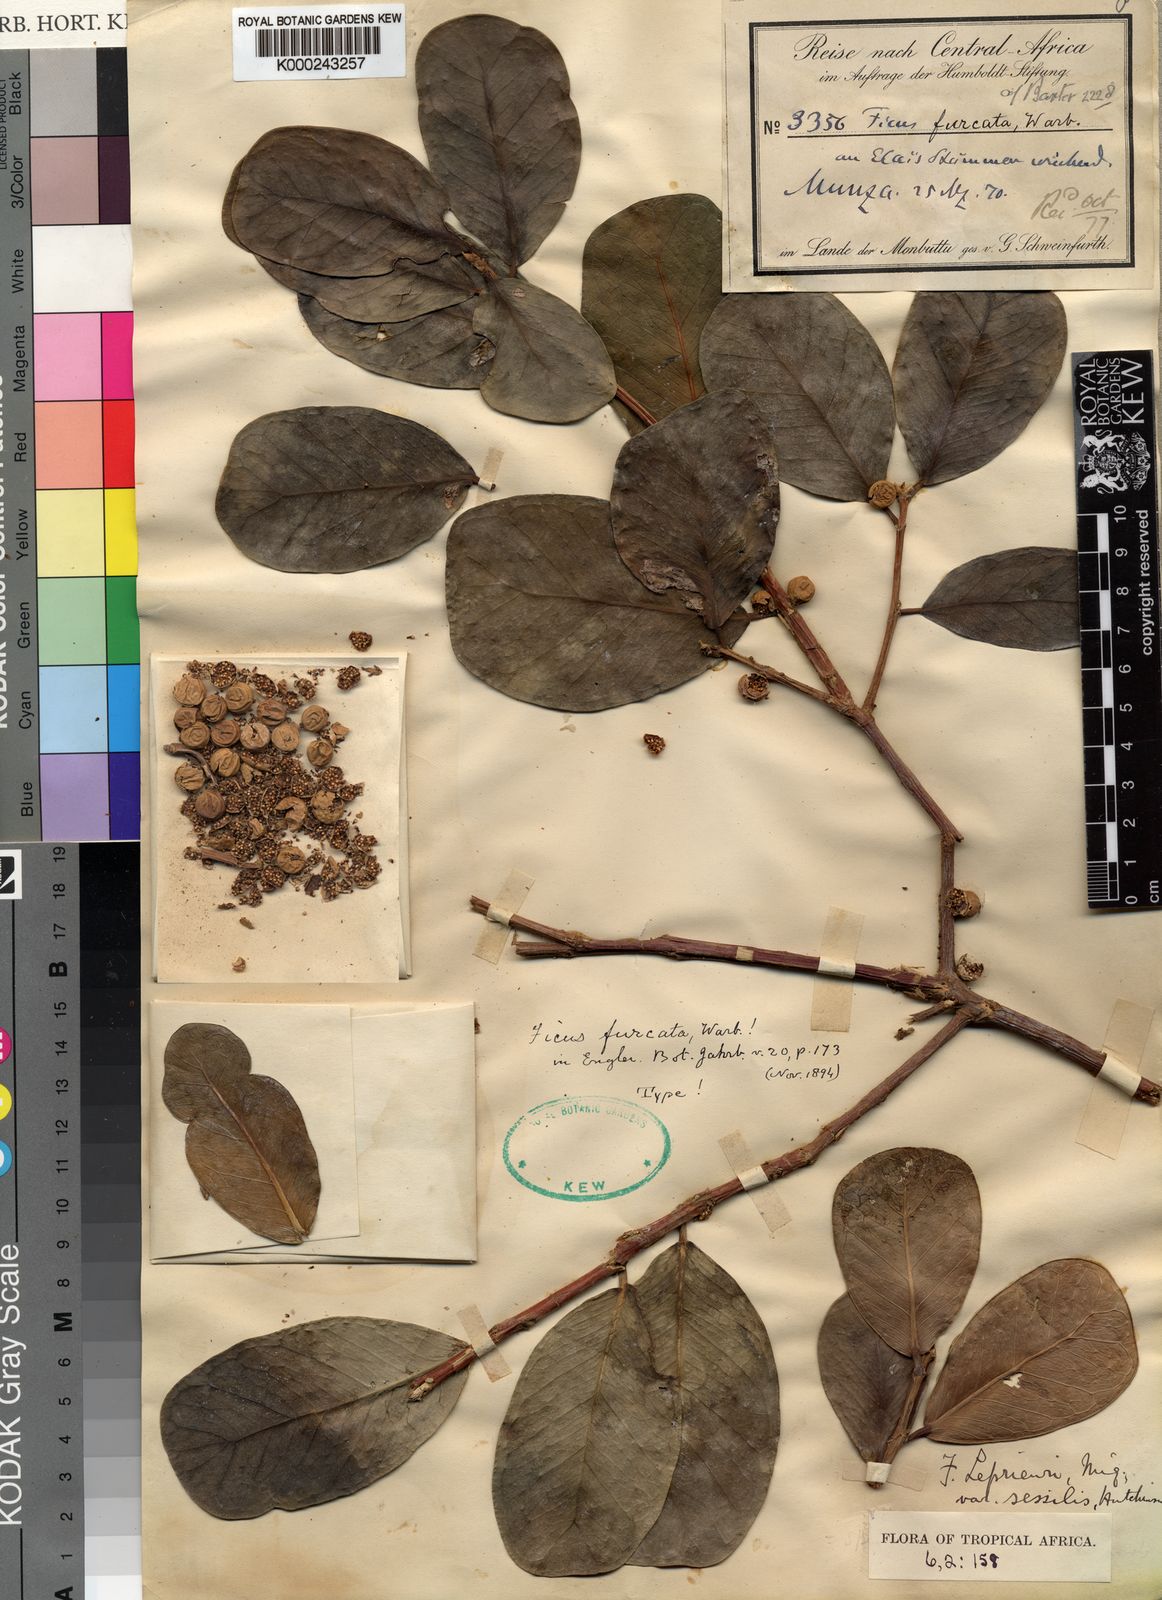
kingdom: Plantae
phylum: Tracheophyta
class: Magnoliopsida
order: Rosales
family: Moraceae
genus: Ficus
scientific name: Ficus natalensis
